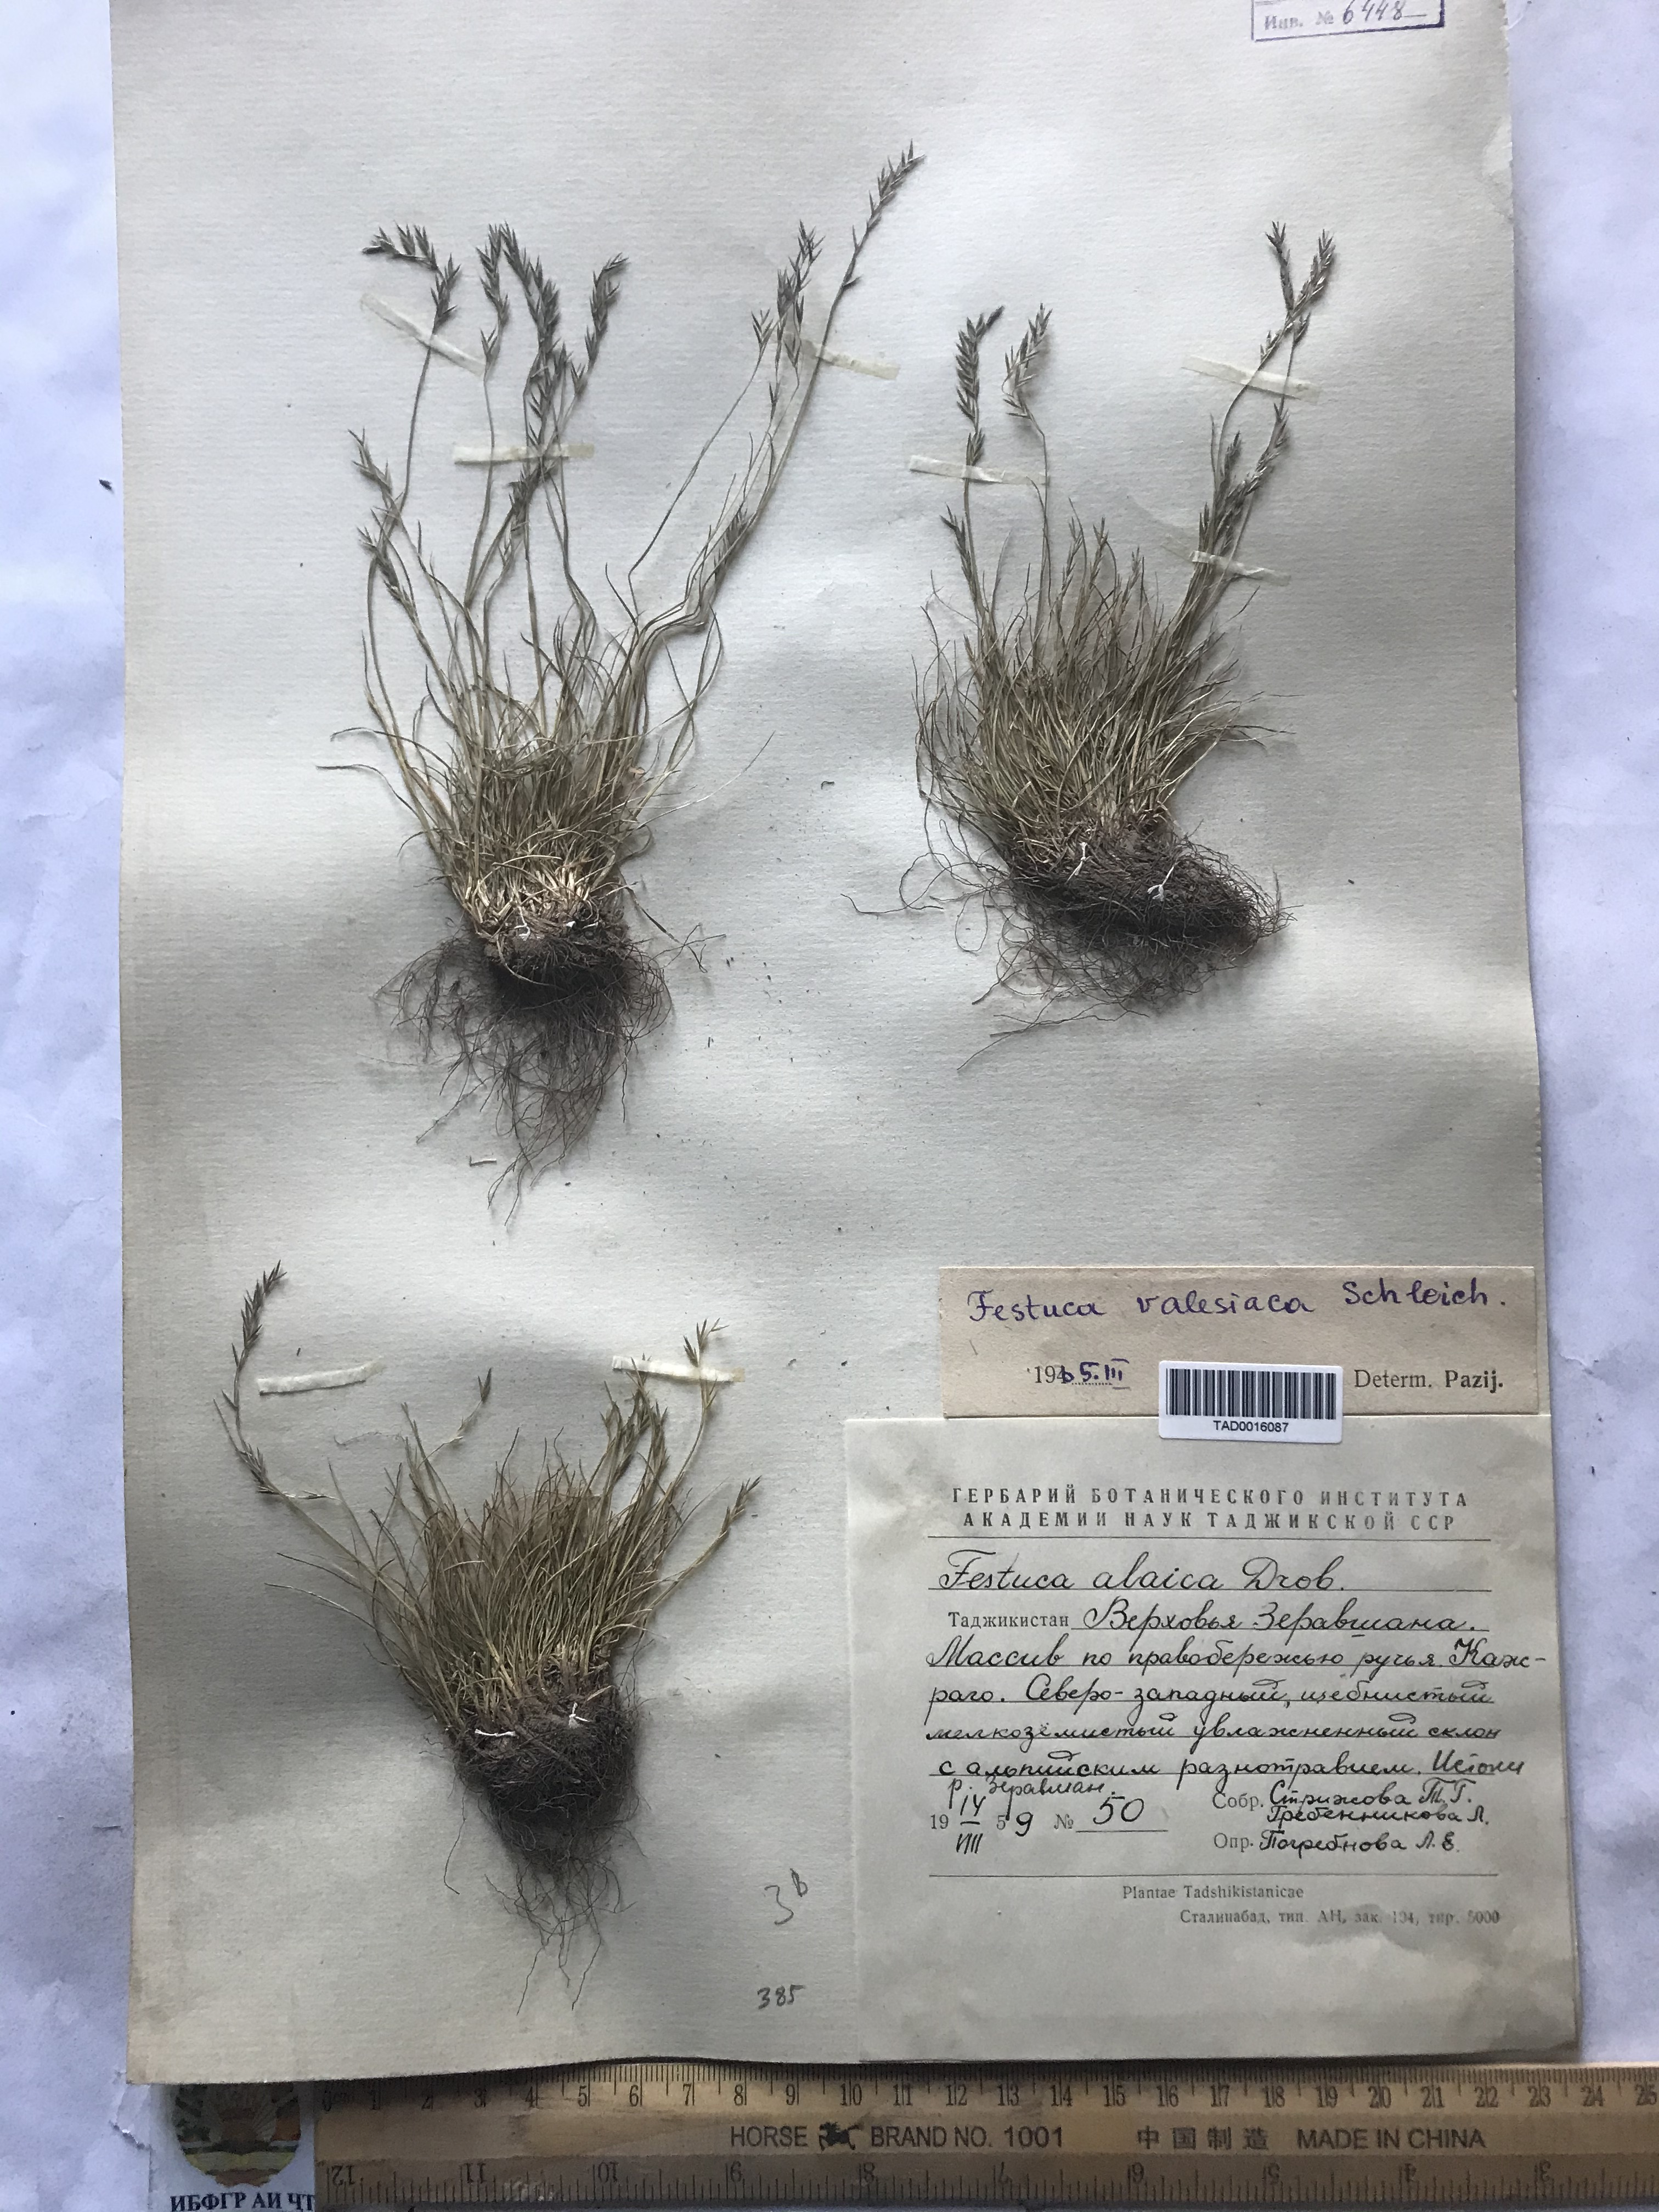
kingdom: Plantae
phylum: Tracheophyta
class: Liliopsida
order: Poales
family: Poaceae
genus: Festuca
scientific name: Festuca valesiaca
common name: Volga fescue
